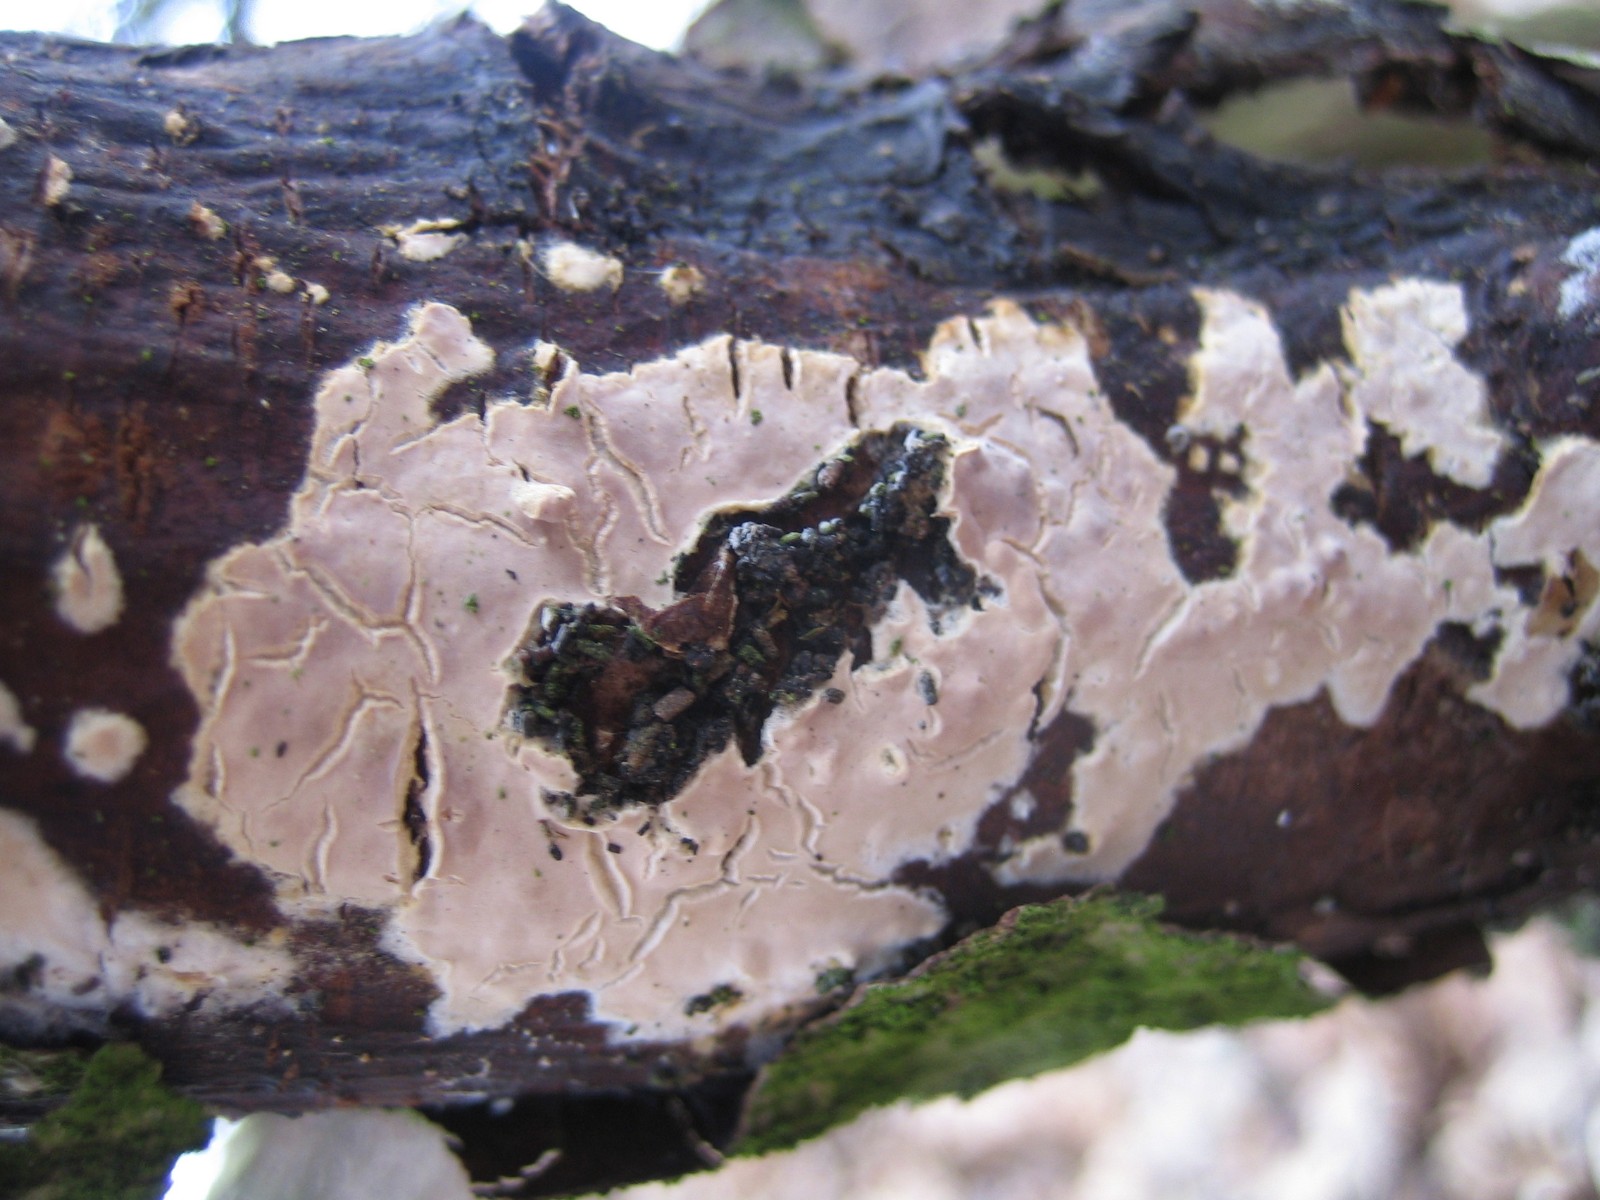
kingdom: Fungi
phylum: Basidiomycota
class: Agaricomycetes
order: Agaricales
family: Physalacriaceae
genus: Cylindrobasidium
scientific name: Cylindrobasidium
